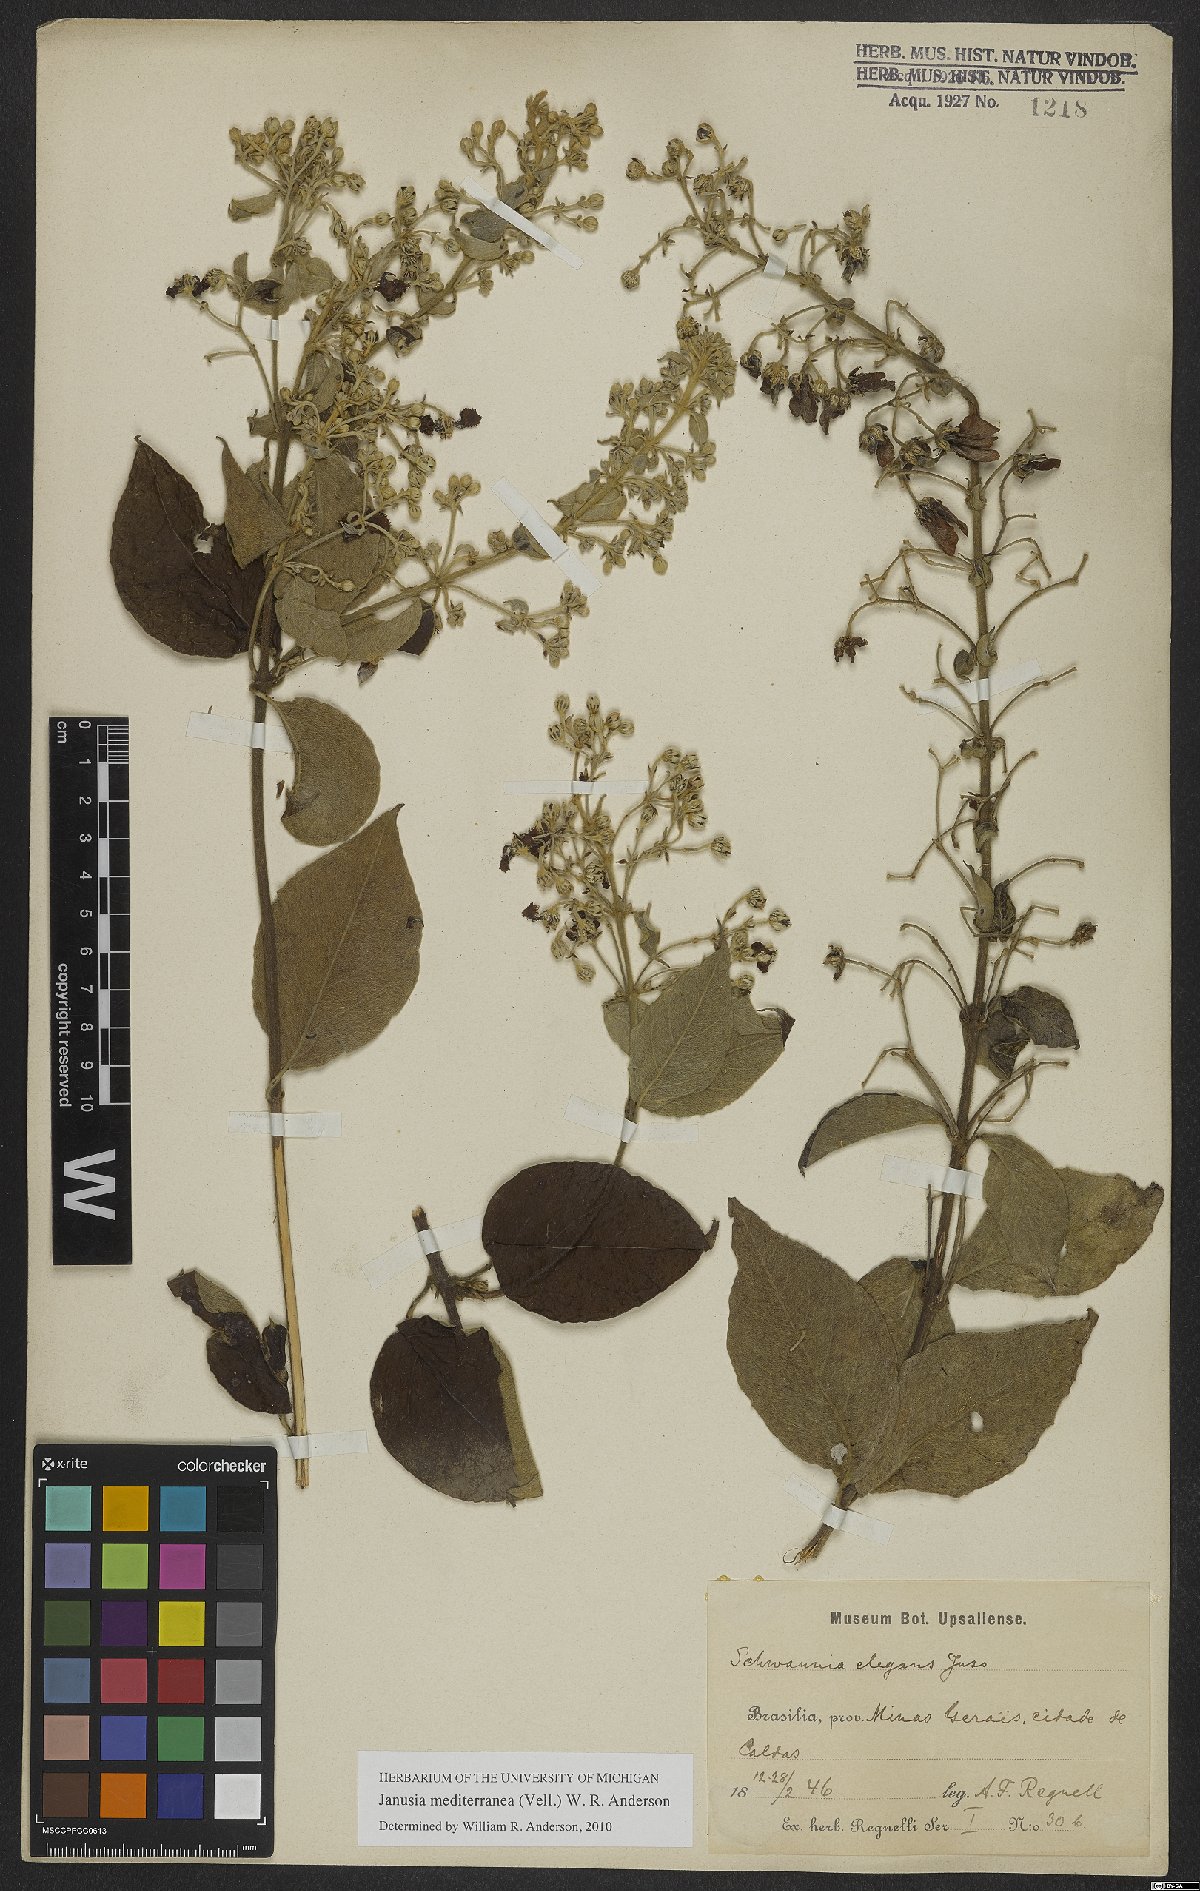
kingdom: Plantae
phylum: Tracheophyta
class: Magnoliopsida
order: Malpighiales
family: Malpighiaceae
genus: Janusia
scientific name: Janusia mediterranea
